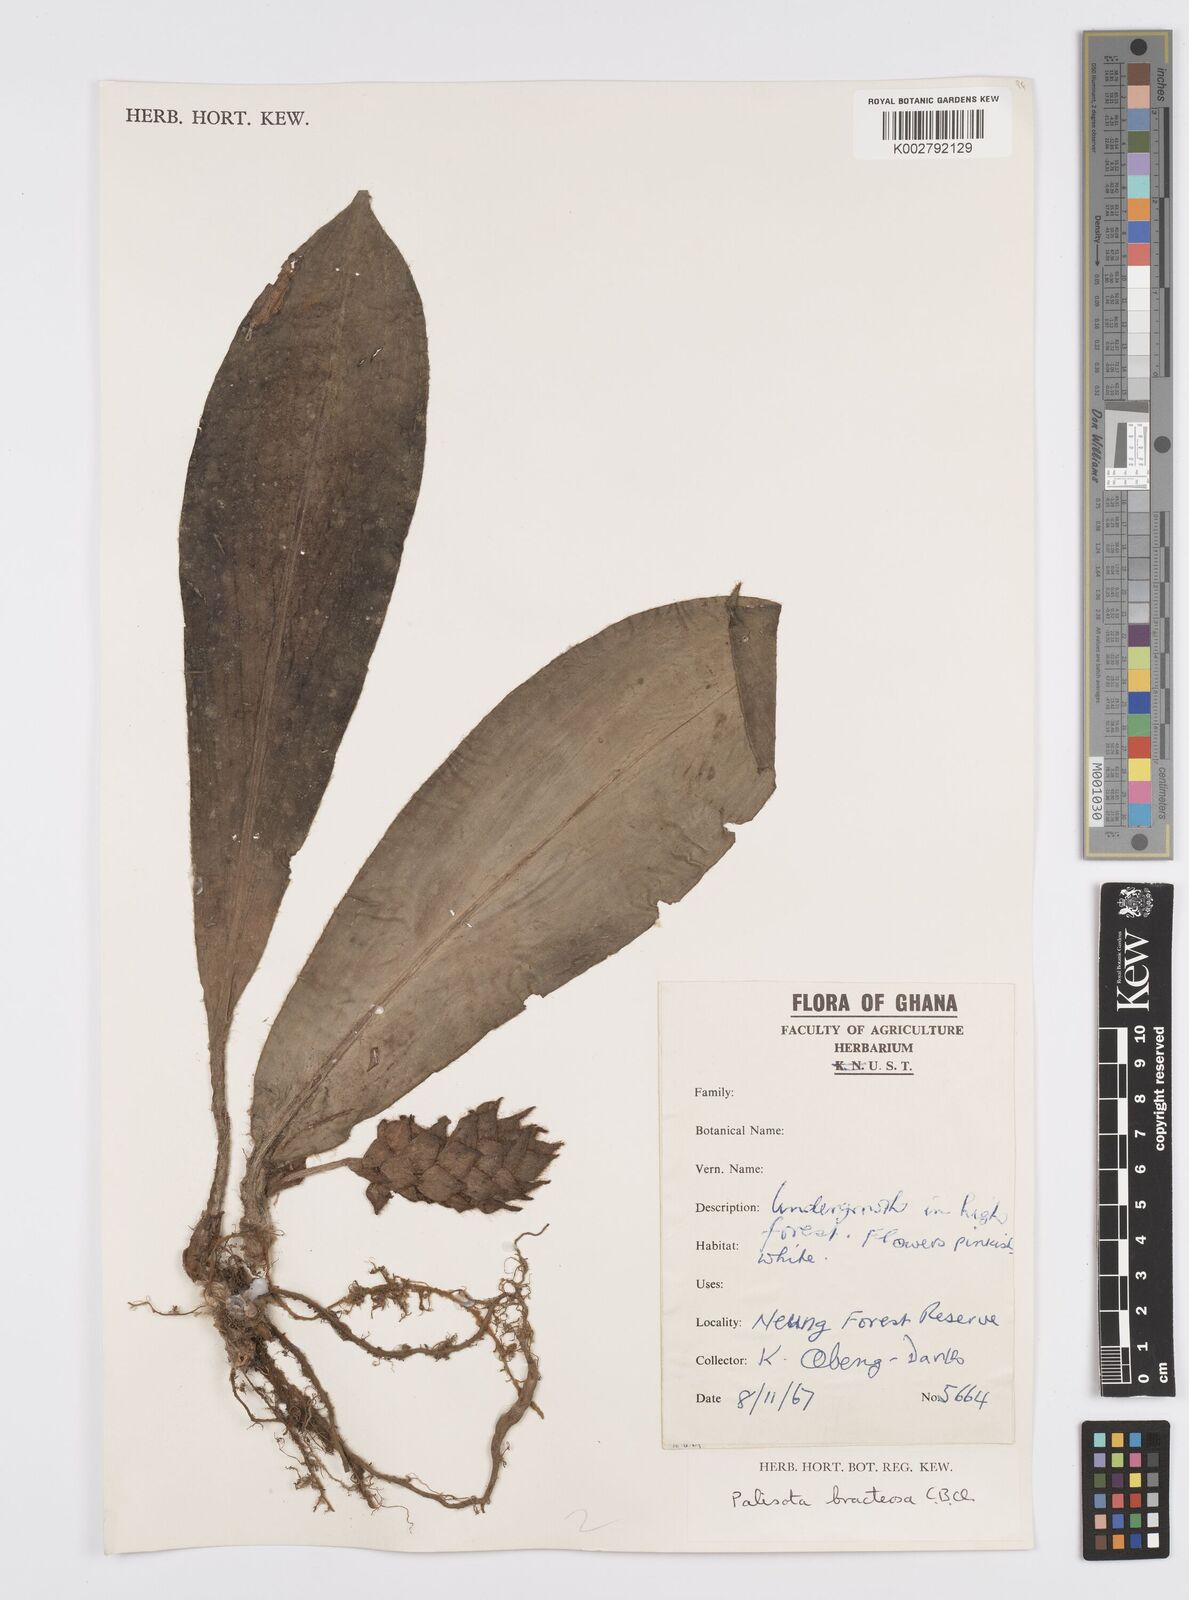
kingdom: Plantae
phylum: Tracheophyta
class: Liliopsida
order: Commelinales
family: Commelinaceae
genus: Palisota
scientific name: Palisota bracteosa
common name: Palisota
